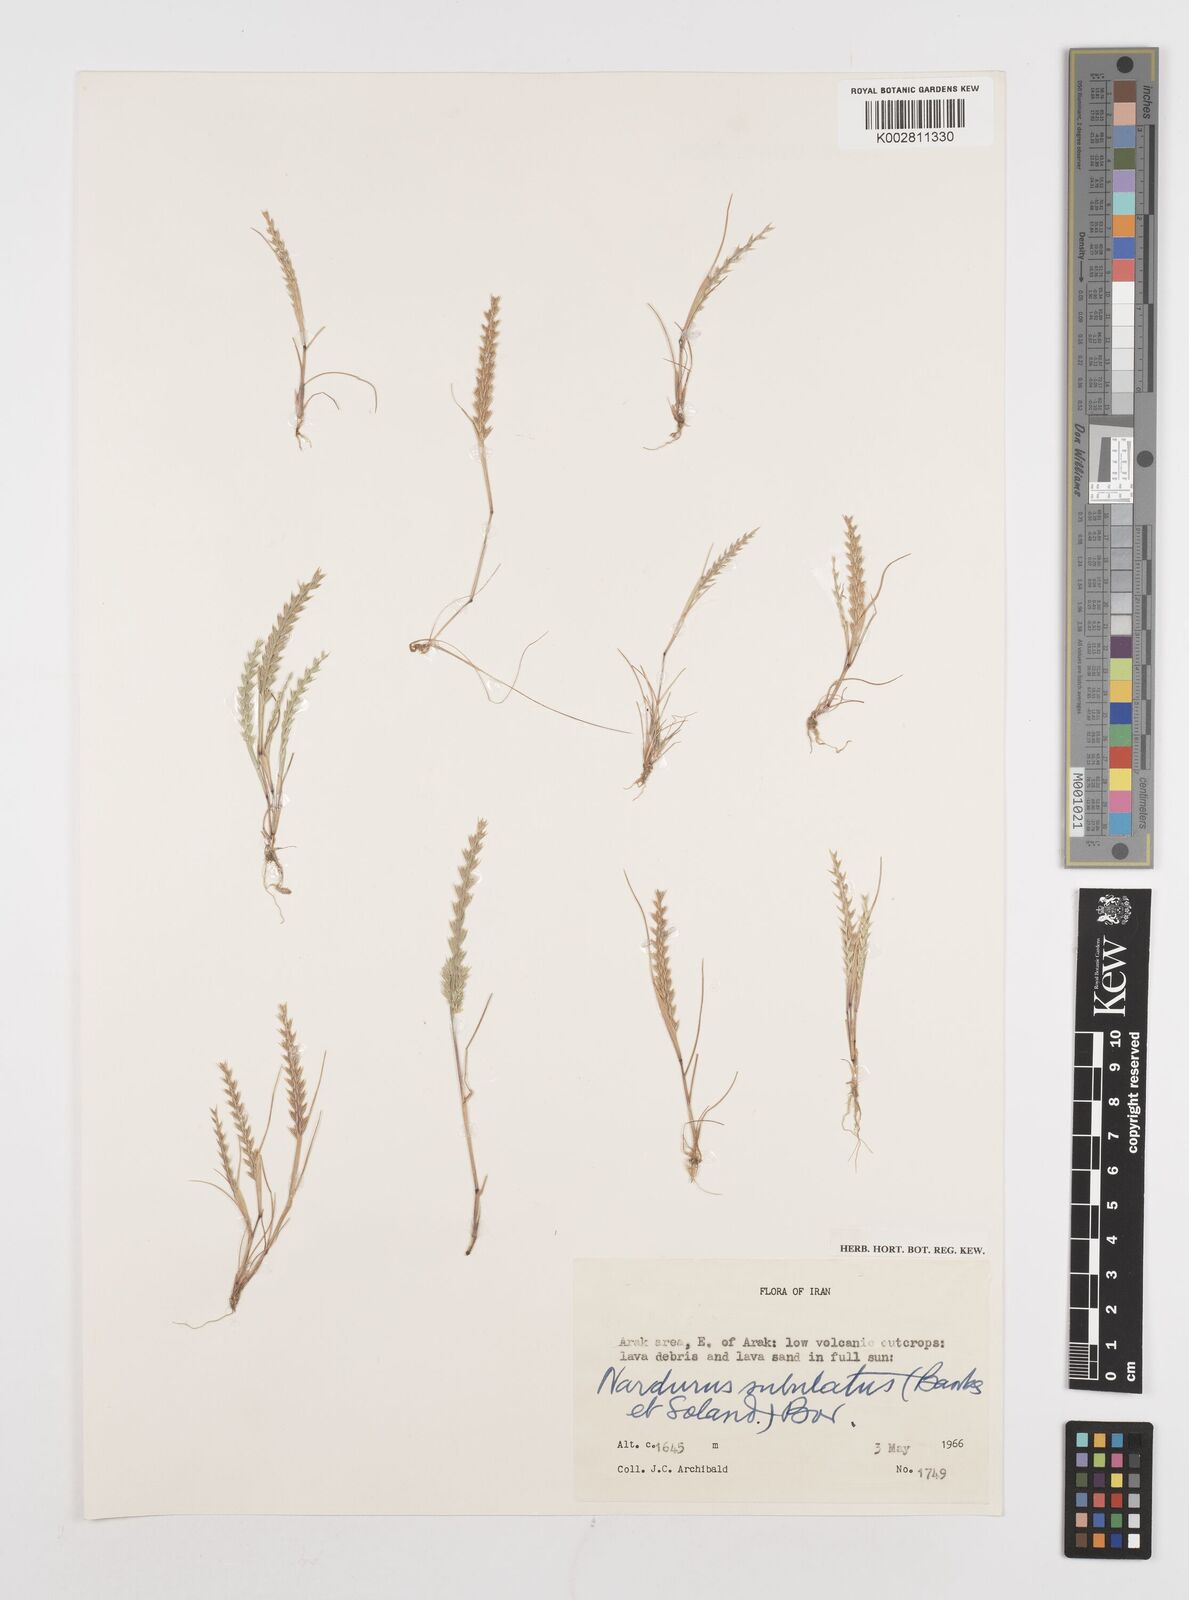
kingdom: Plantae
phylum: Tracheophyta
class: Liliopsida
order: Poales
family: Poaceae
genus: Festuca
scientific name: Festuca orientalis
